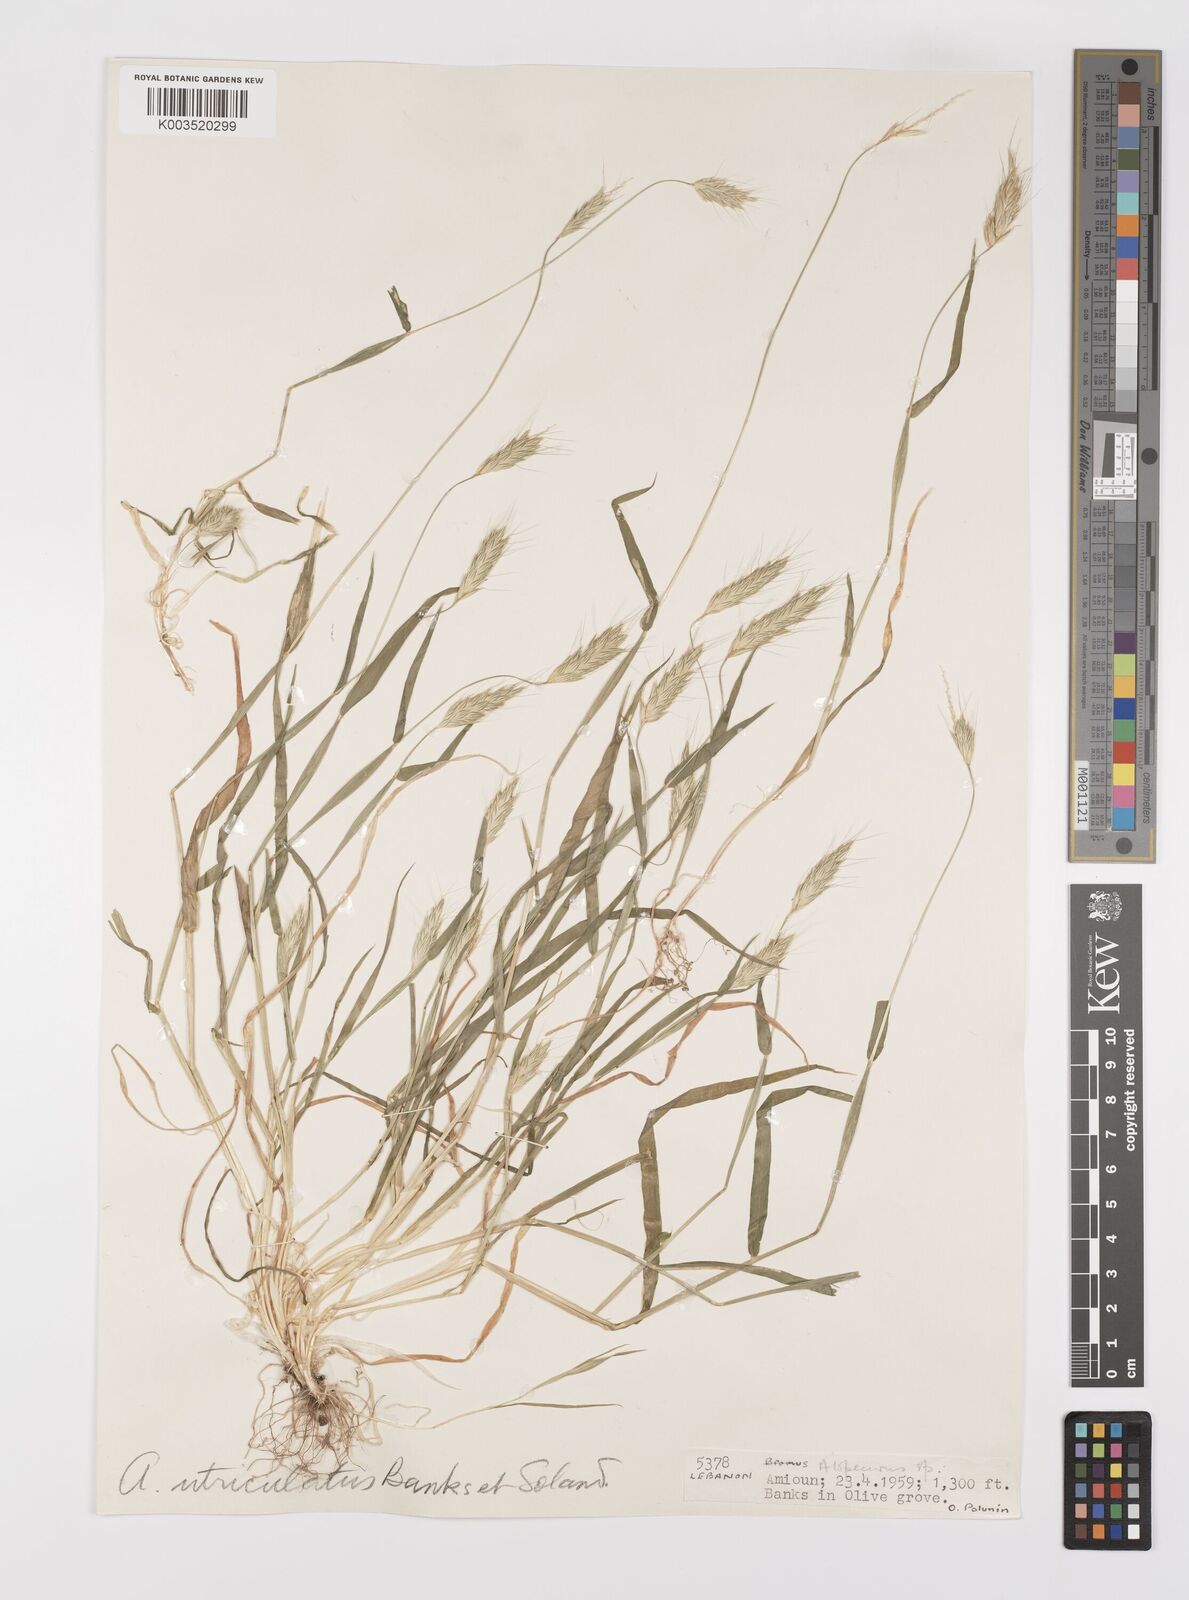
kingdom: Plantae
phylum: Tracheophyta
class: Liliopsida
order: Poales
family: Poaceae
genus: Alopecurus
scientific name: Alopecurus utriculatus
